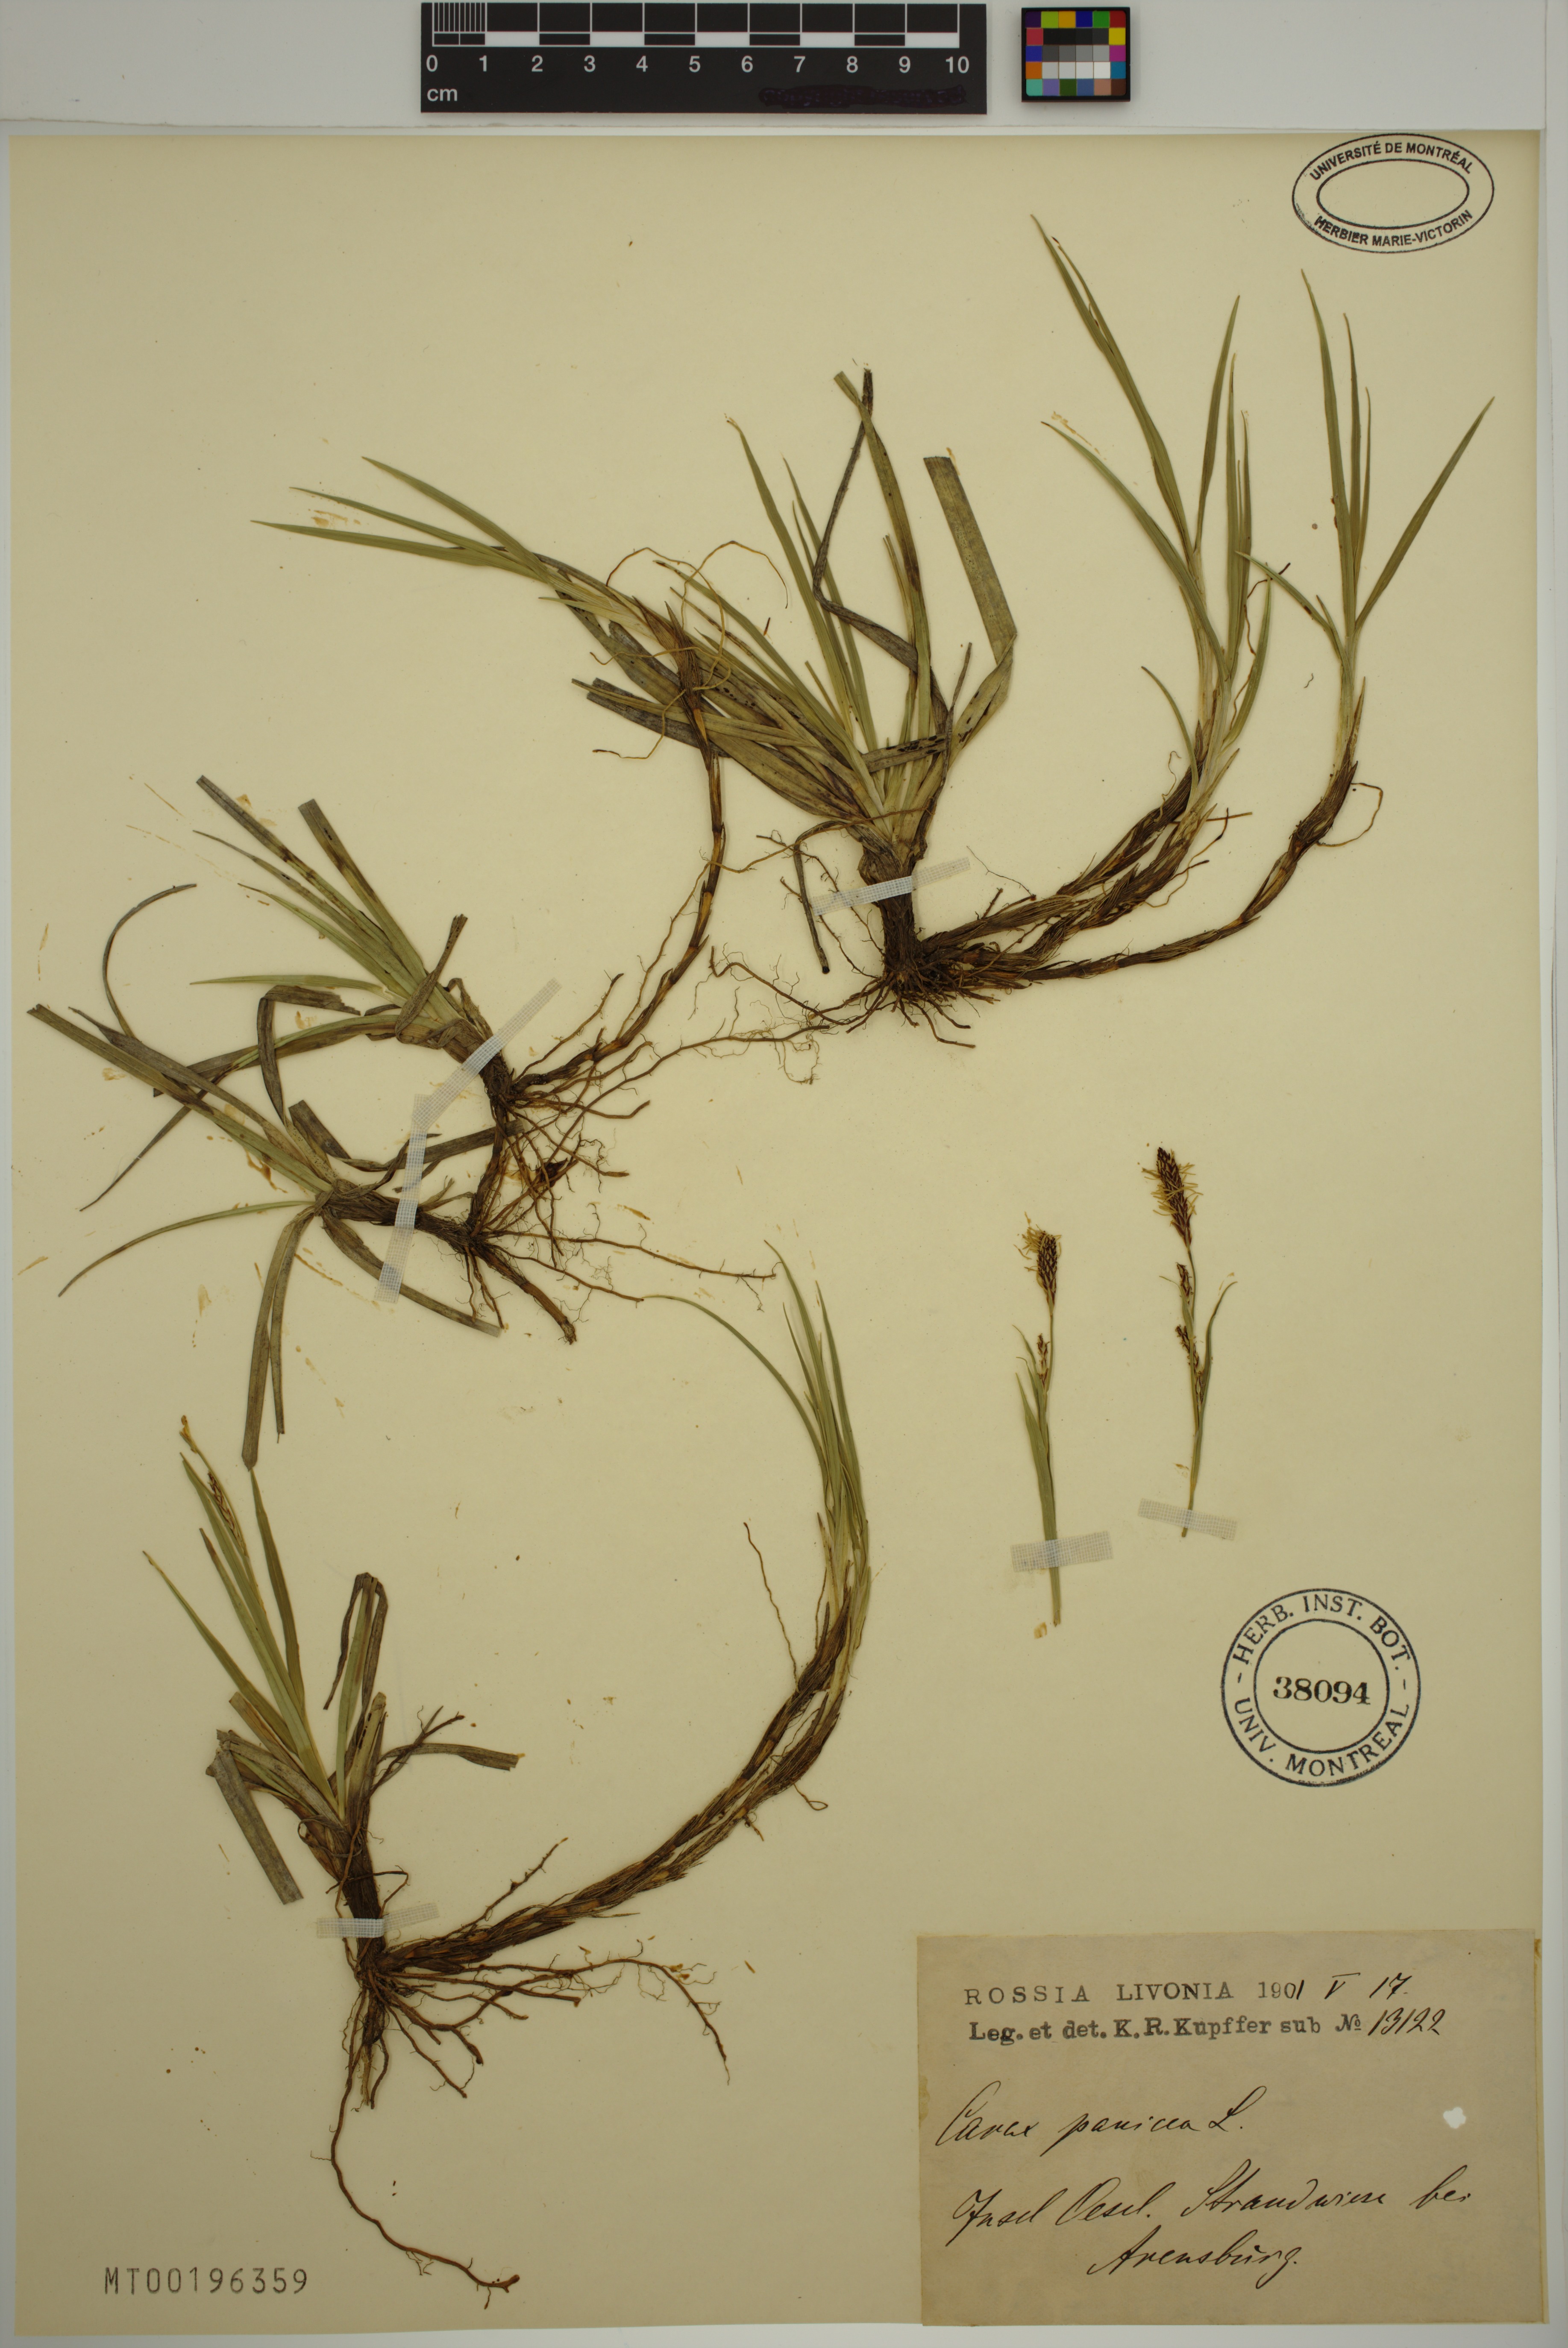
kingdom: Plantae
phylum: Tracheophyta
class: Liliopsida
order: Poales
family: Cyperaceae
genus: Carex
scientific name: Carex panicea
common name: Carnation sedge
